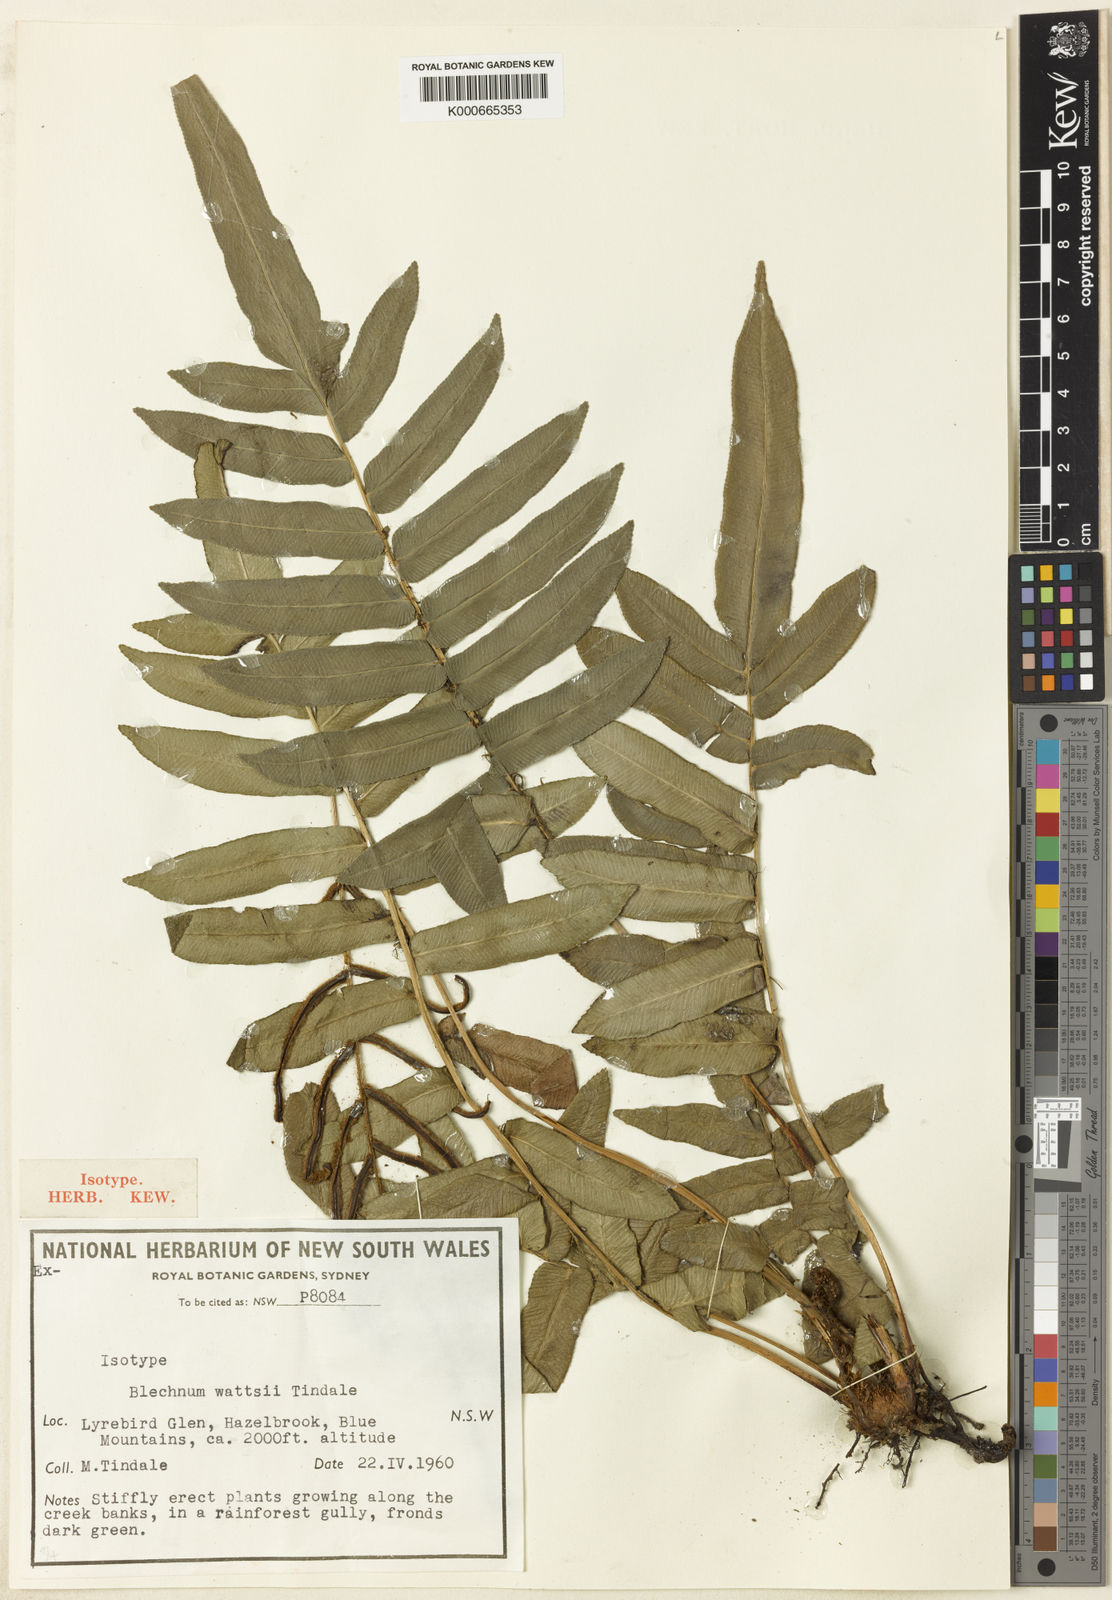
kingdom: Plantae
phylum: Tracheophyta
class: Polypodiopsida
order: Polypodiales
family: Blechnaceae
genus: Parablechnum
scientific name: Parablechnum wattsii
